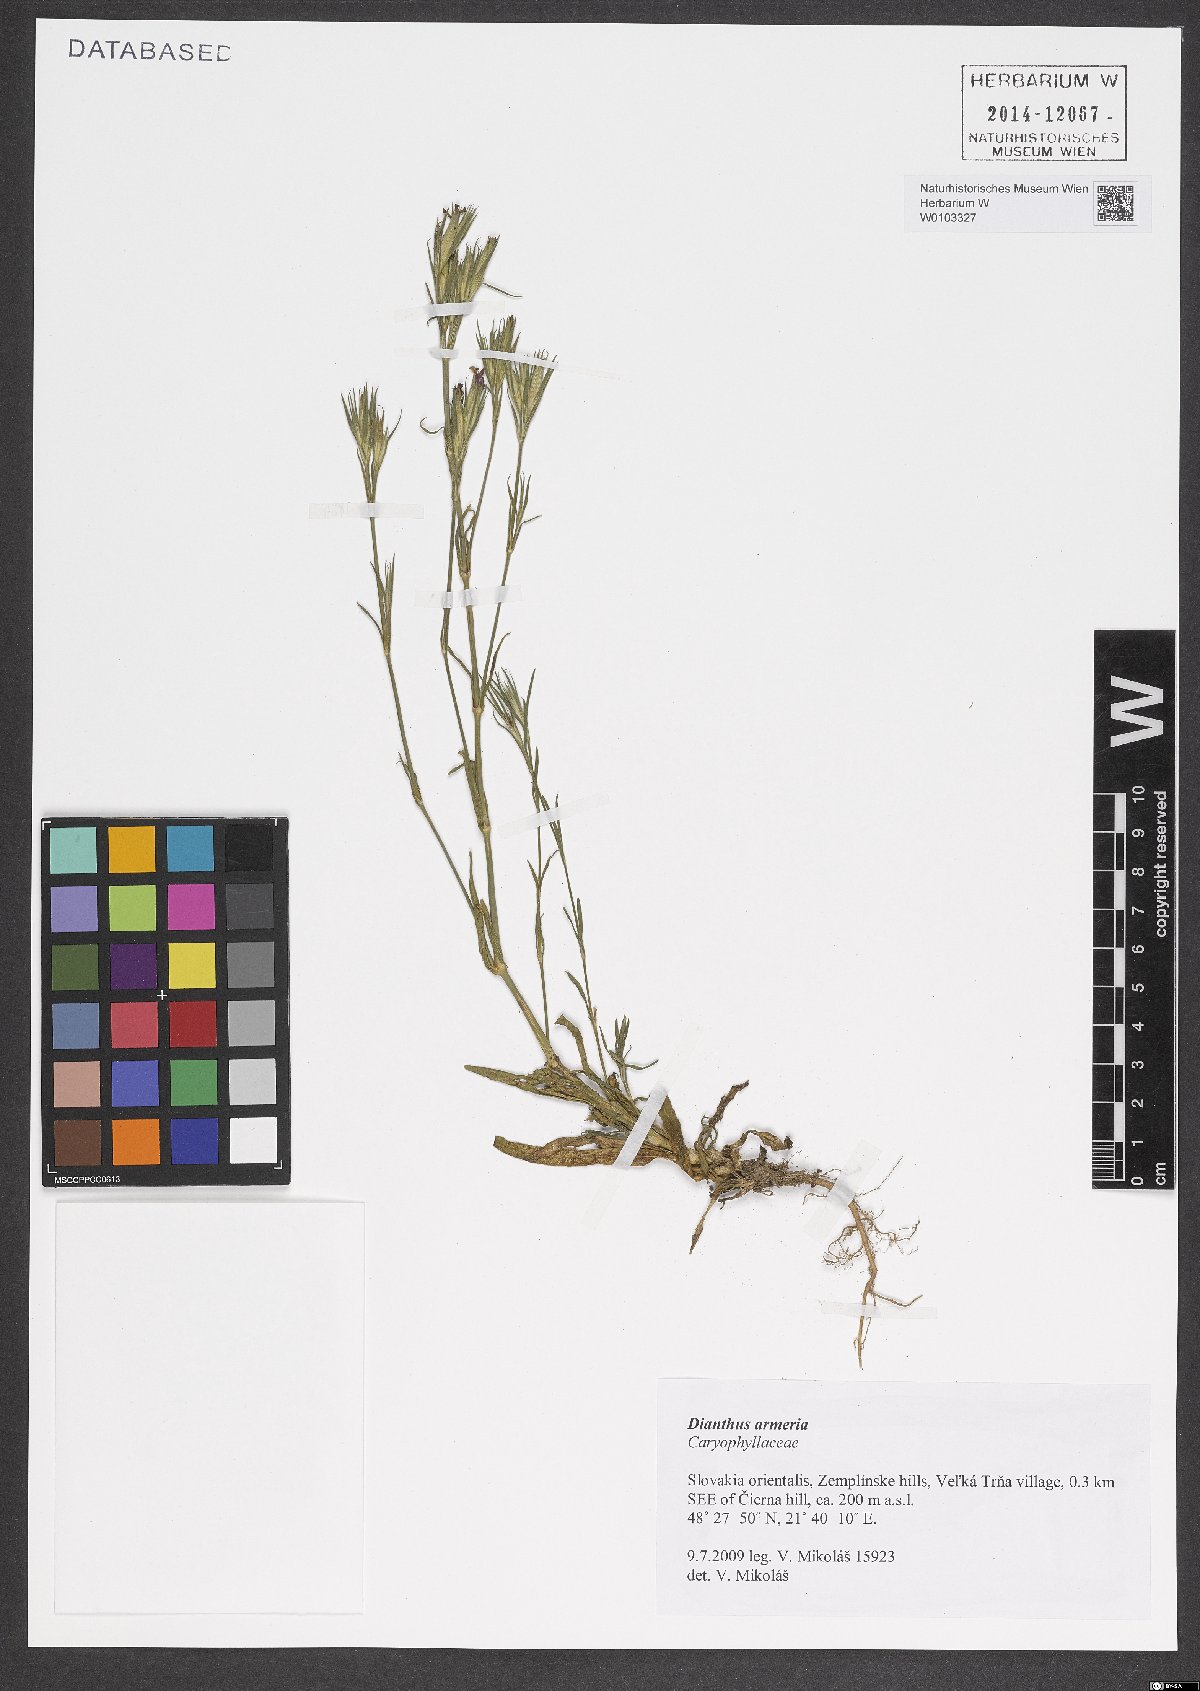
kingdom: Plantae
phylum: Tracheophyta
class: Magnoliopsida
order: Caryophyllales
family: Caryophyllaceae
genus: Dianthus
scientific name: Dianthus armeria
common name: Deptford pink
